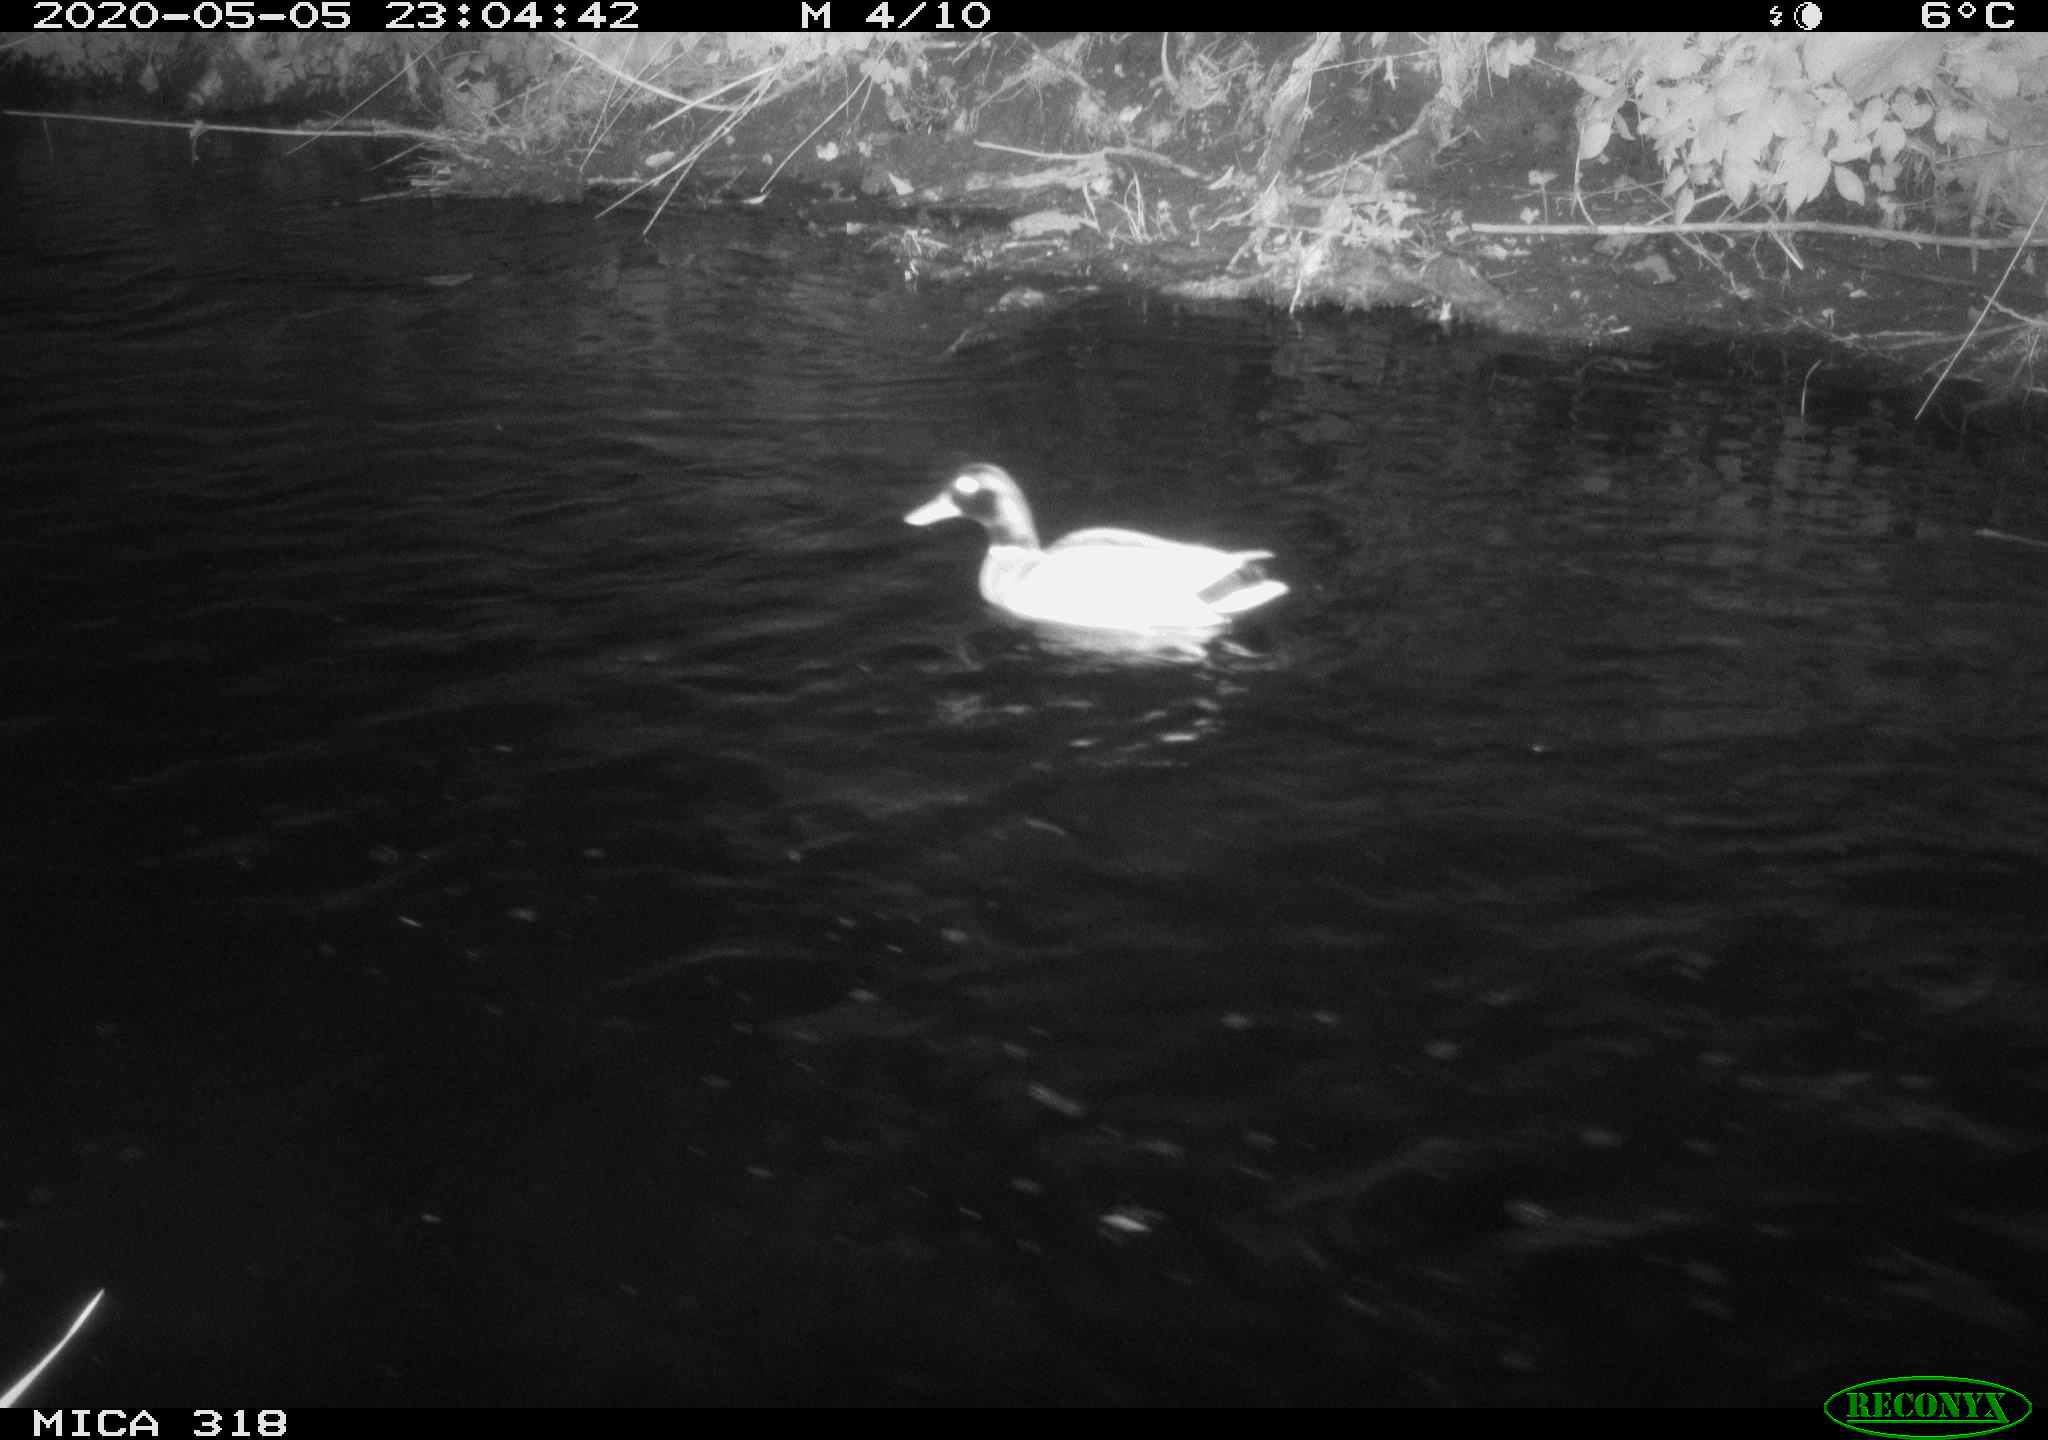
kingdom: Animalia
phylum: Chordata
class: Aves
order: Pelecaniformes
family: Ardeidae
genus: Ardea
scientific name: Ardea cinerea
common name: Grey heron
